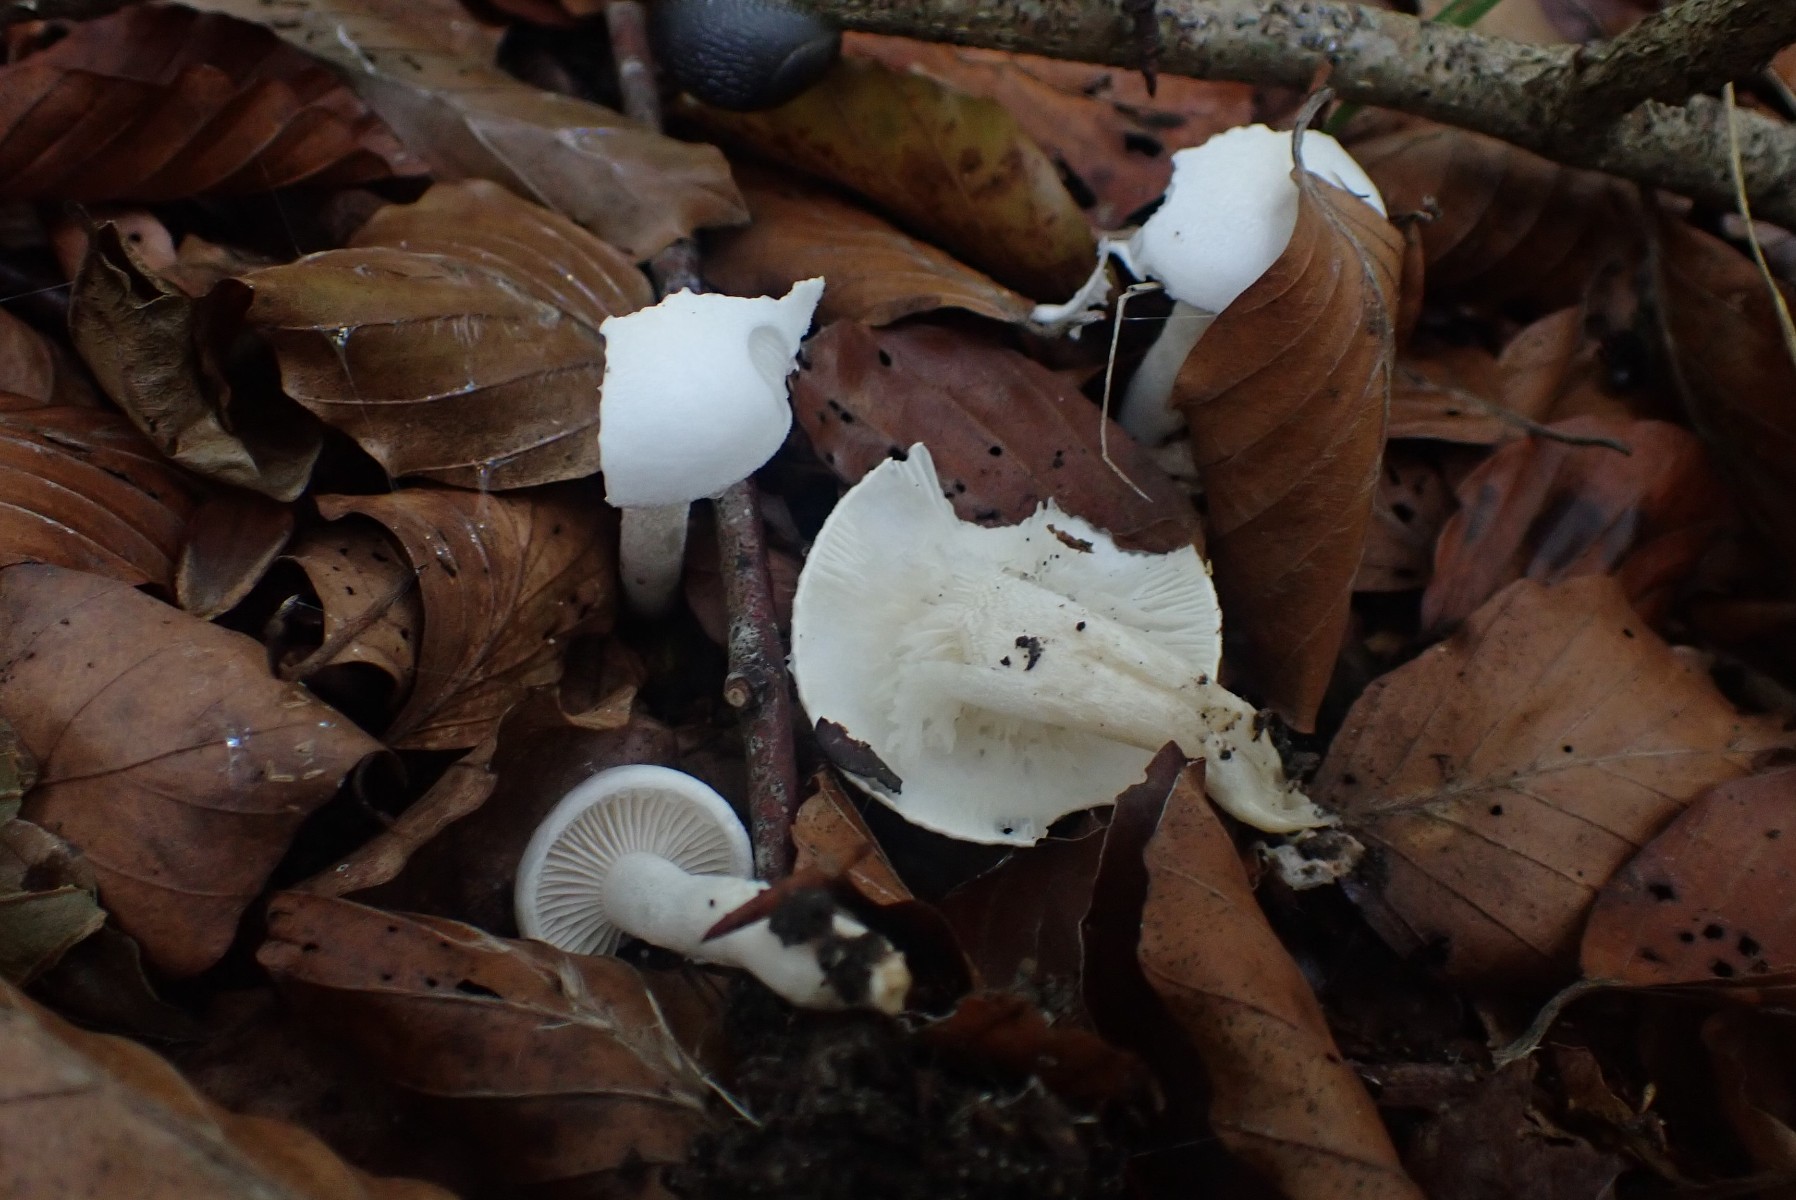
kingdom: Fungi
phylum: Basidiomycota
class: Agaricomycetes
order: Agaricales
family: Hygrophoraceae
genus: Hygrophorus
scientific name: Hygrophorus eburneus
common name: elfenbens-sneglehat
